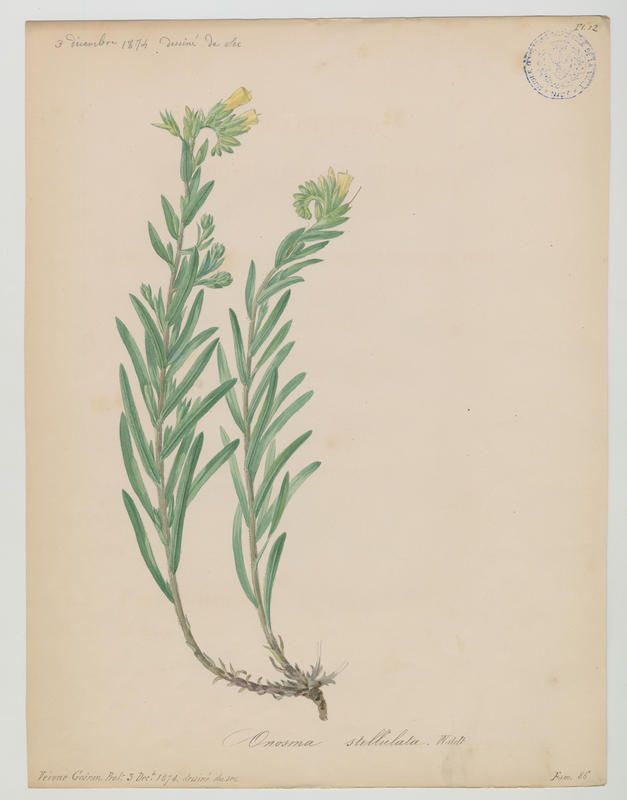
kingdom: Plantae
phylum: Tracheophyta
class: Magnoliopsida
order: Boraginales
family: Boraginaceae
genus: Onosma
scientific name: Onosma stellulata
